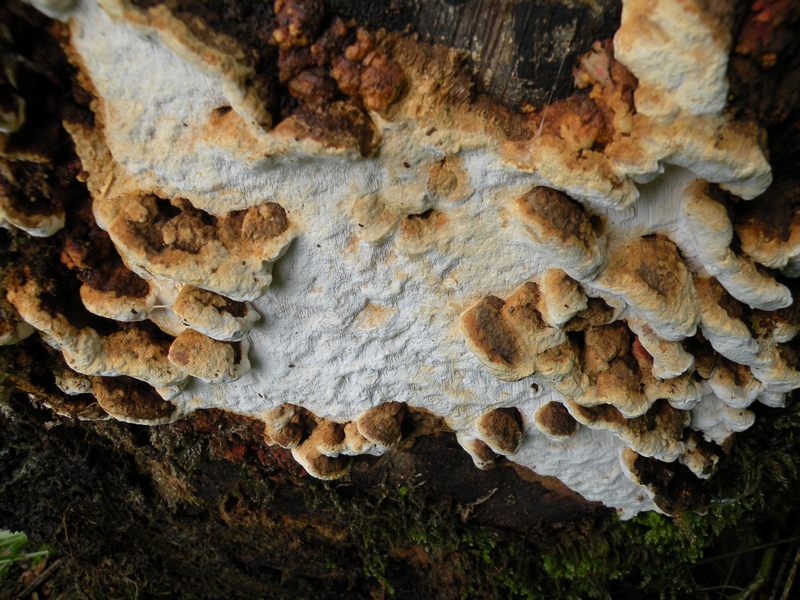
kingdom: Fungi
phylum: Basidiomycota
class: Agaricomycetes
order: Polyporales
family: Fomitopsidaceae
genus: Neoantrodia
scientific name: Neoantrodia serialis
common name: række-sejporesvamp
